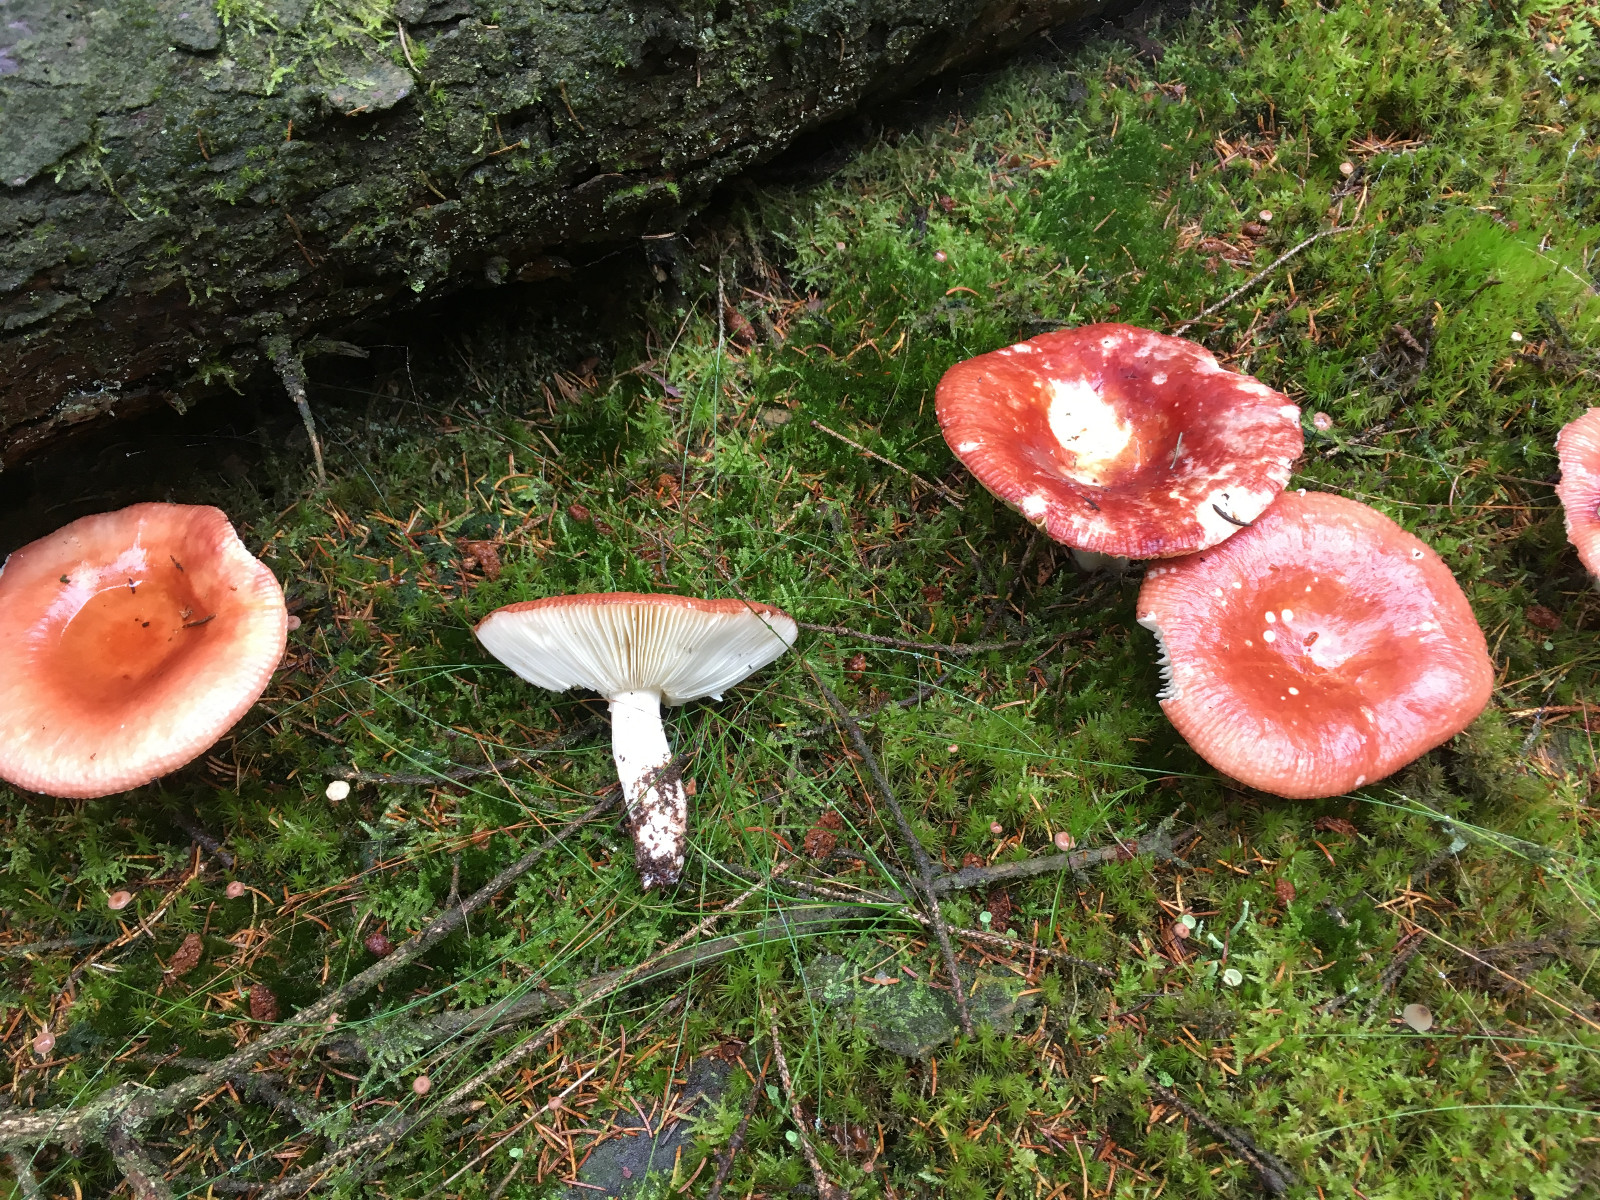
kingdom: Fungi
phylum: Basidiomycota
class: Agaricomycetes
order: Russulales
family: Russulaceae
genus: Russula
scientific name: Russula paludosa
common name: prægtig skørhat
